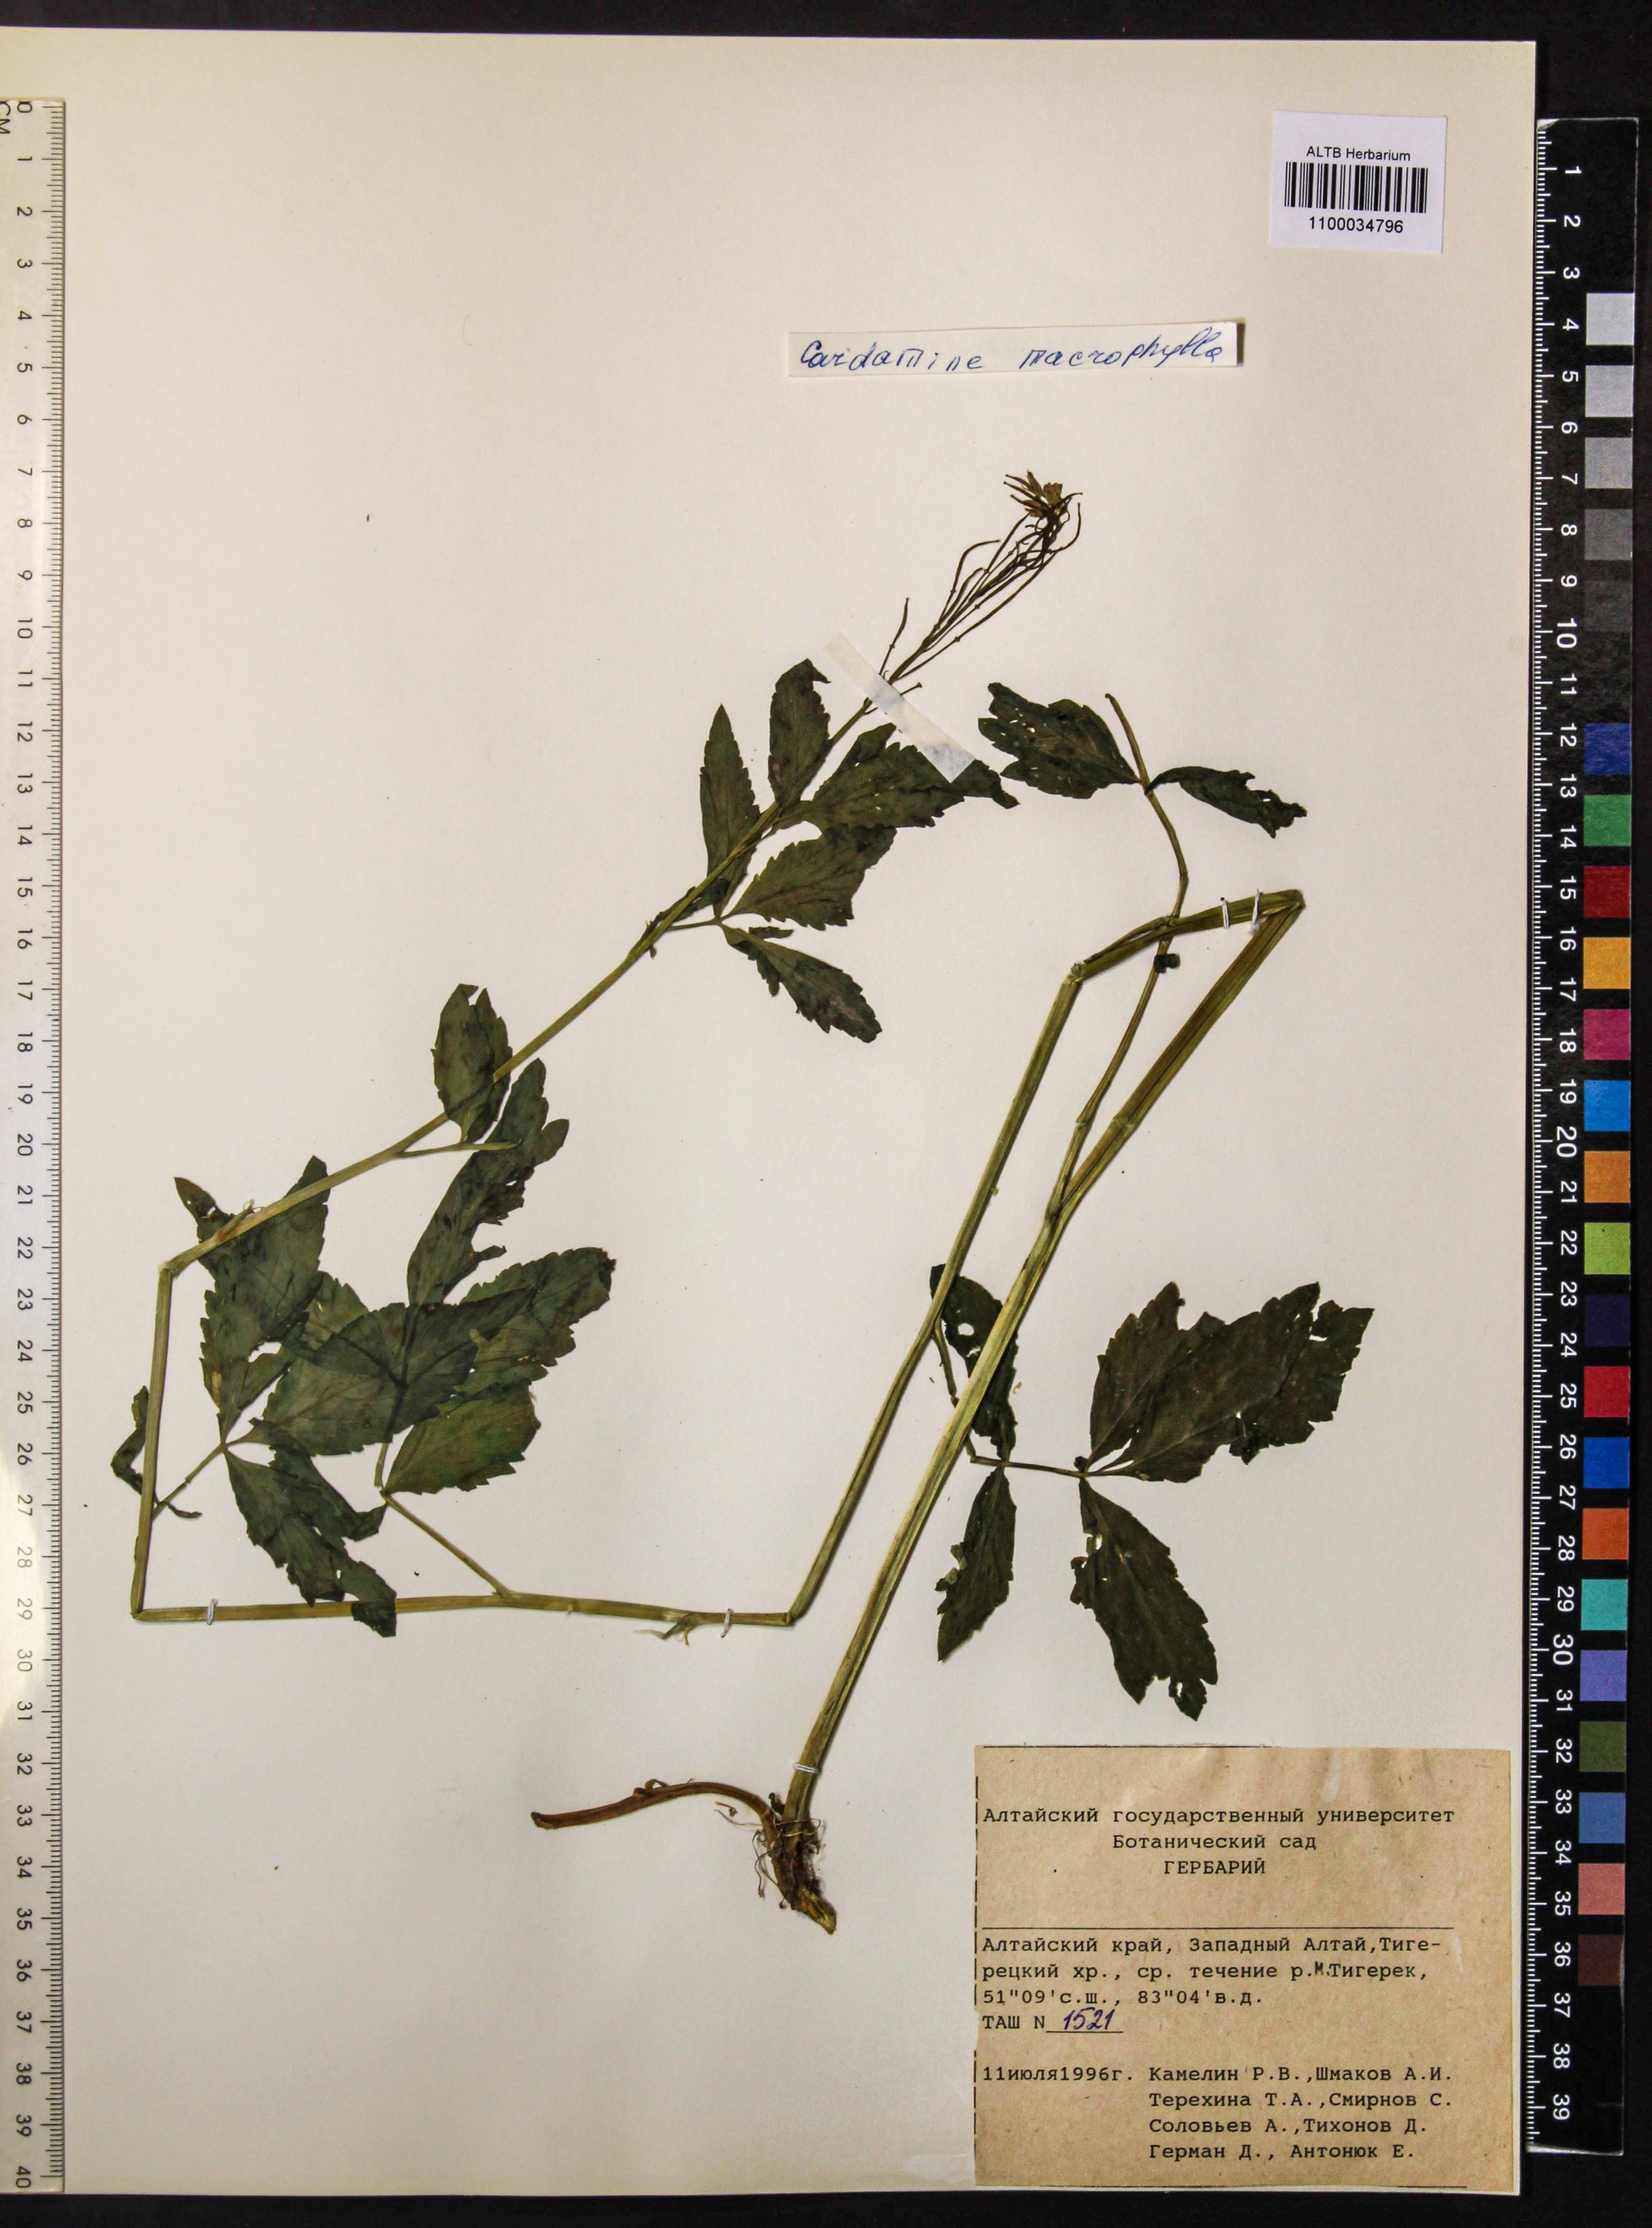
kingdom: Plantae
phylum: Tracheophyta
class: Magnoliopsida
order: Brassicales
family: Brassicaceae
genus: Cardamine
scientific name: Cardamine macrophylla
